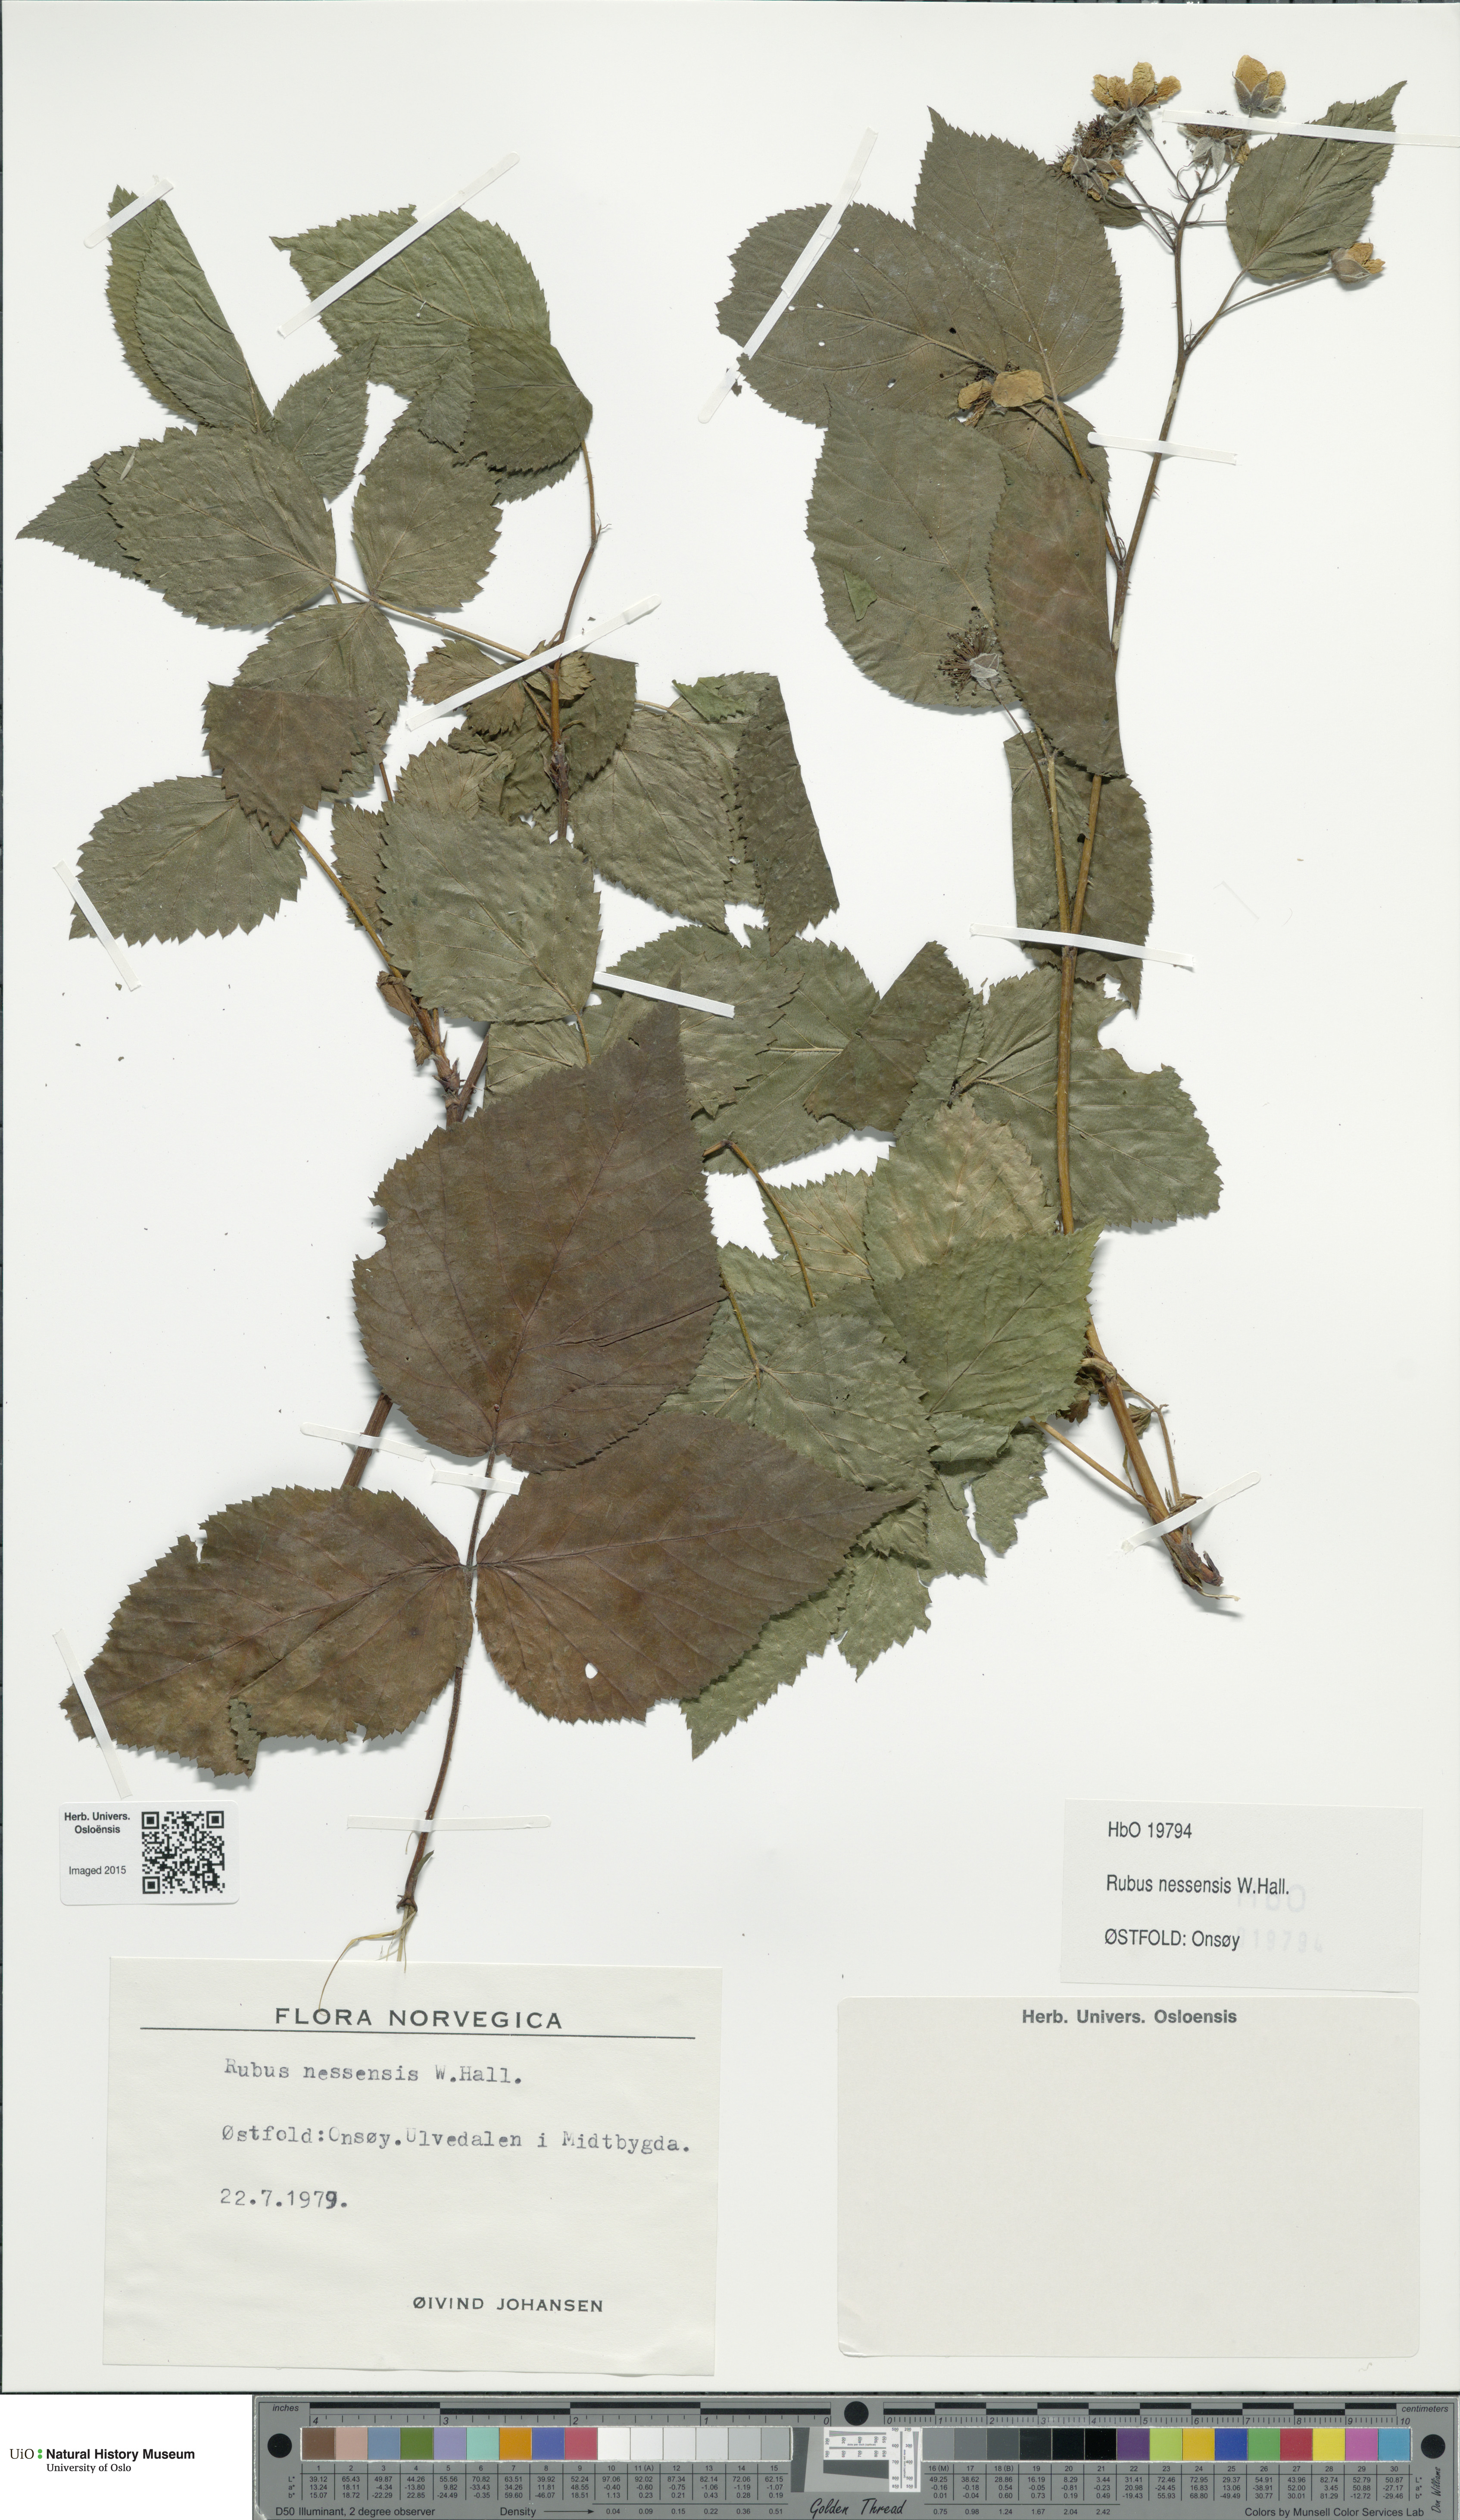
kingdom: Plantae
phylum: Tracheophyta
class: Magnoliopsida
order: Rosales
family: Rosaceae
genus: Rubus
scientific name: Rubus polonicus
